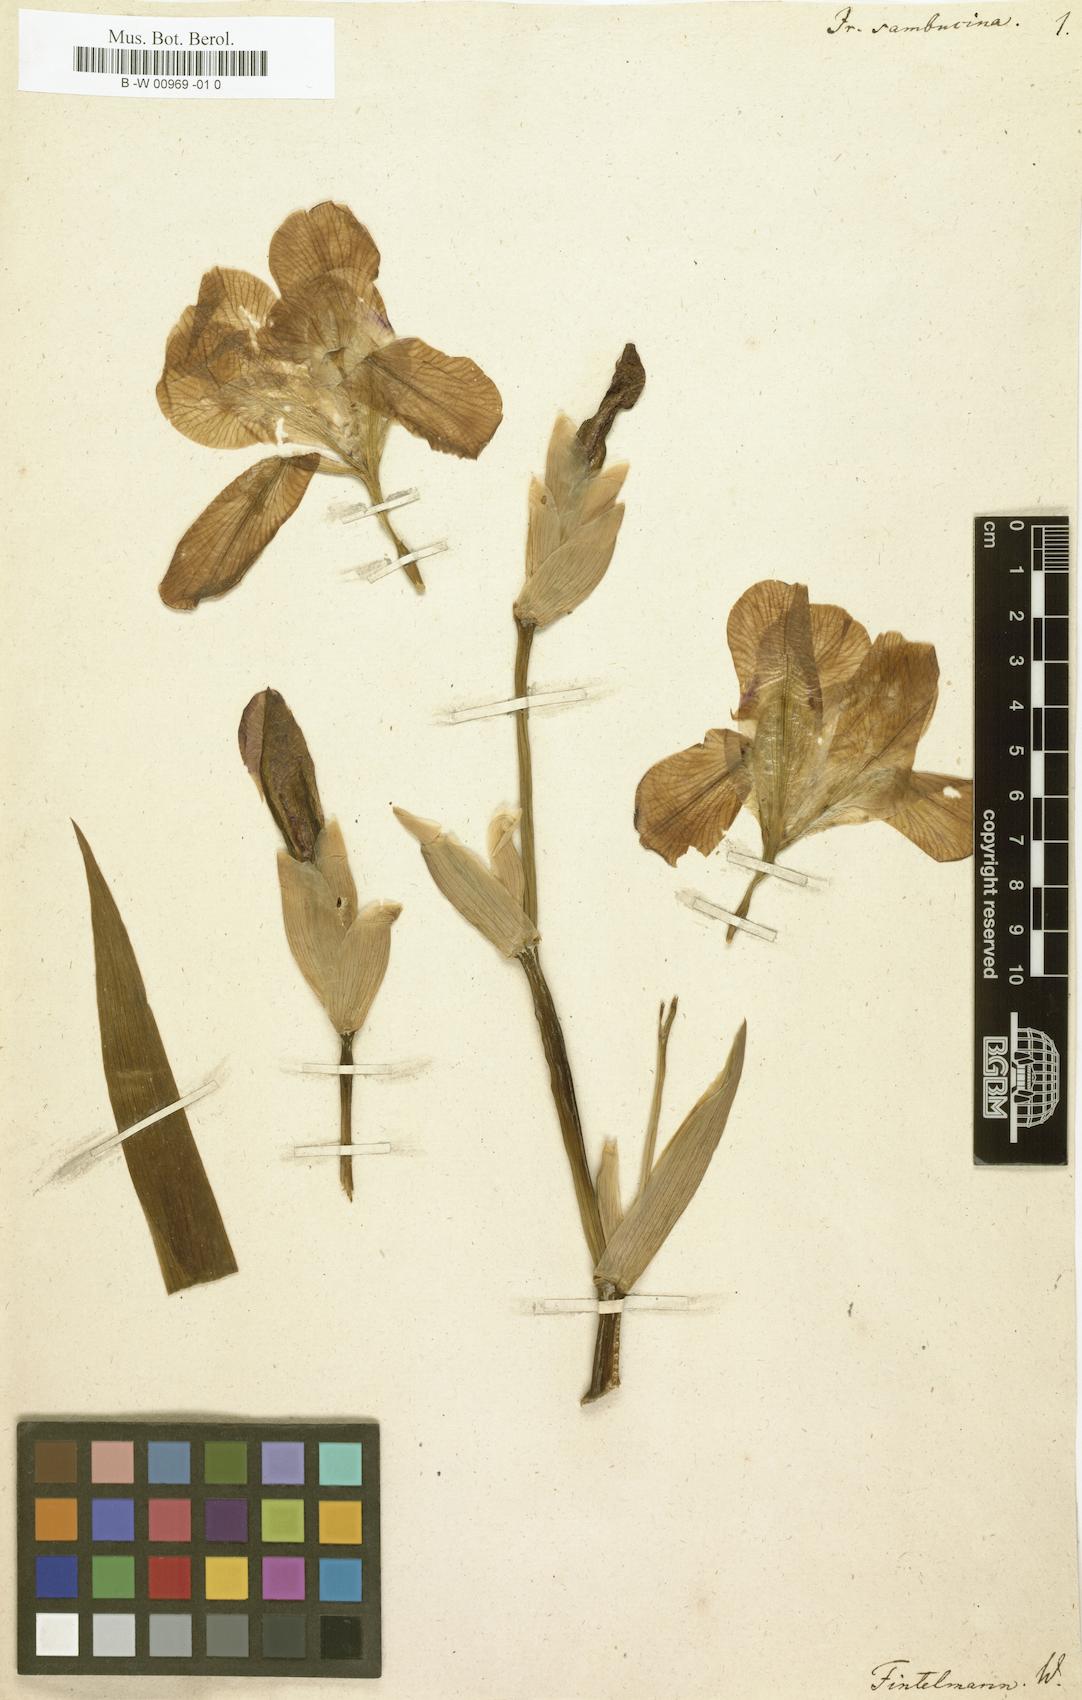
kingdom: Plantae
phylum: Tracheophyta
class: Liliopsida
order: Asparagales
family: Iridaceae
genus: Iris
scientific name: Iris germanica
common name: German iris
